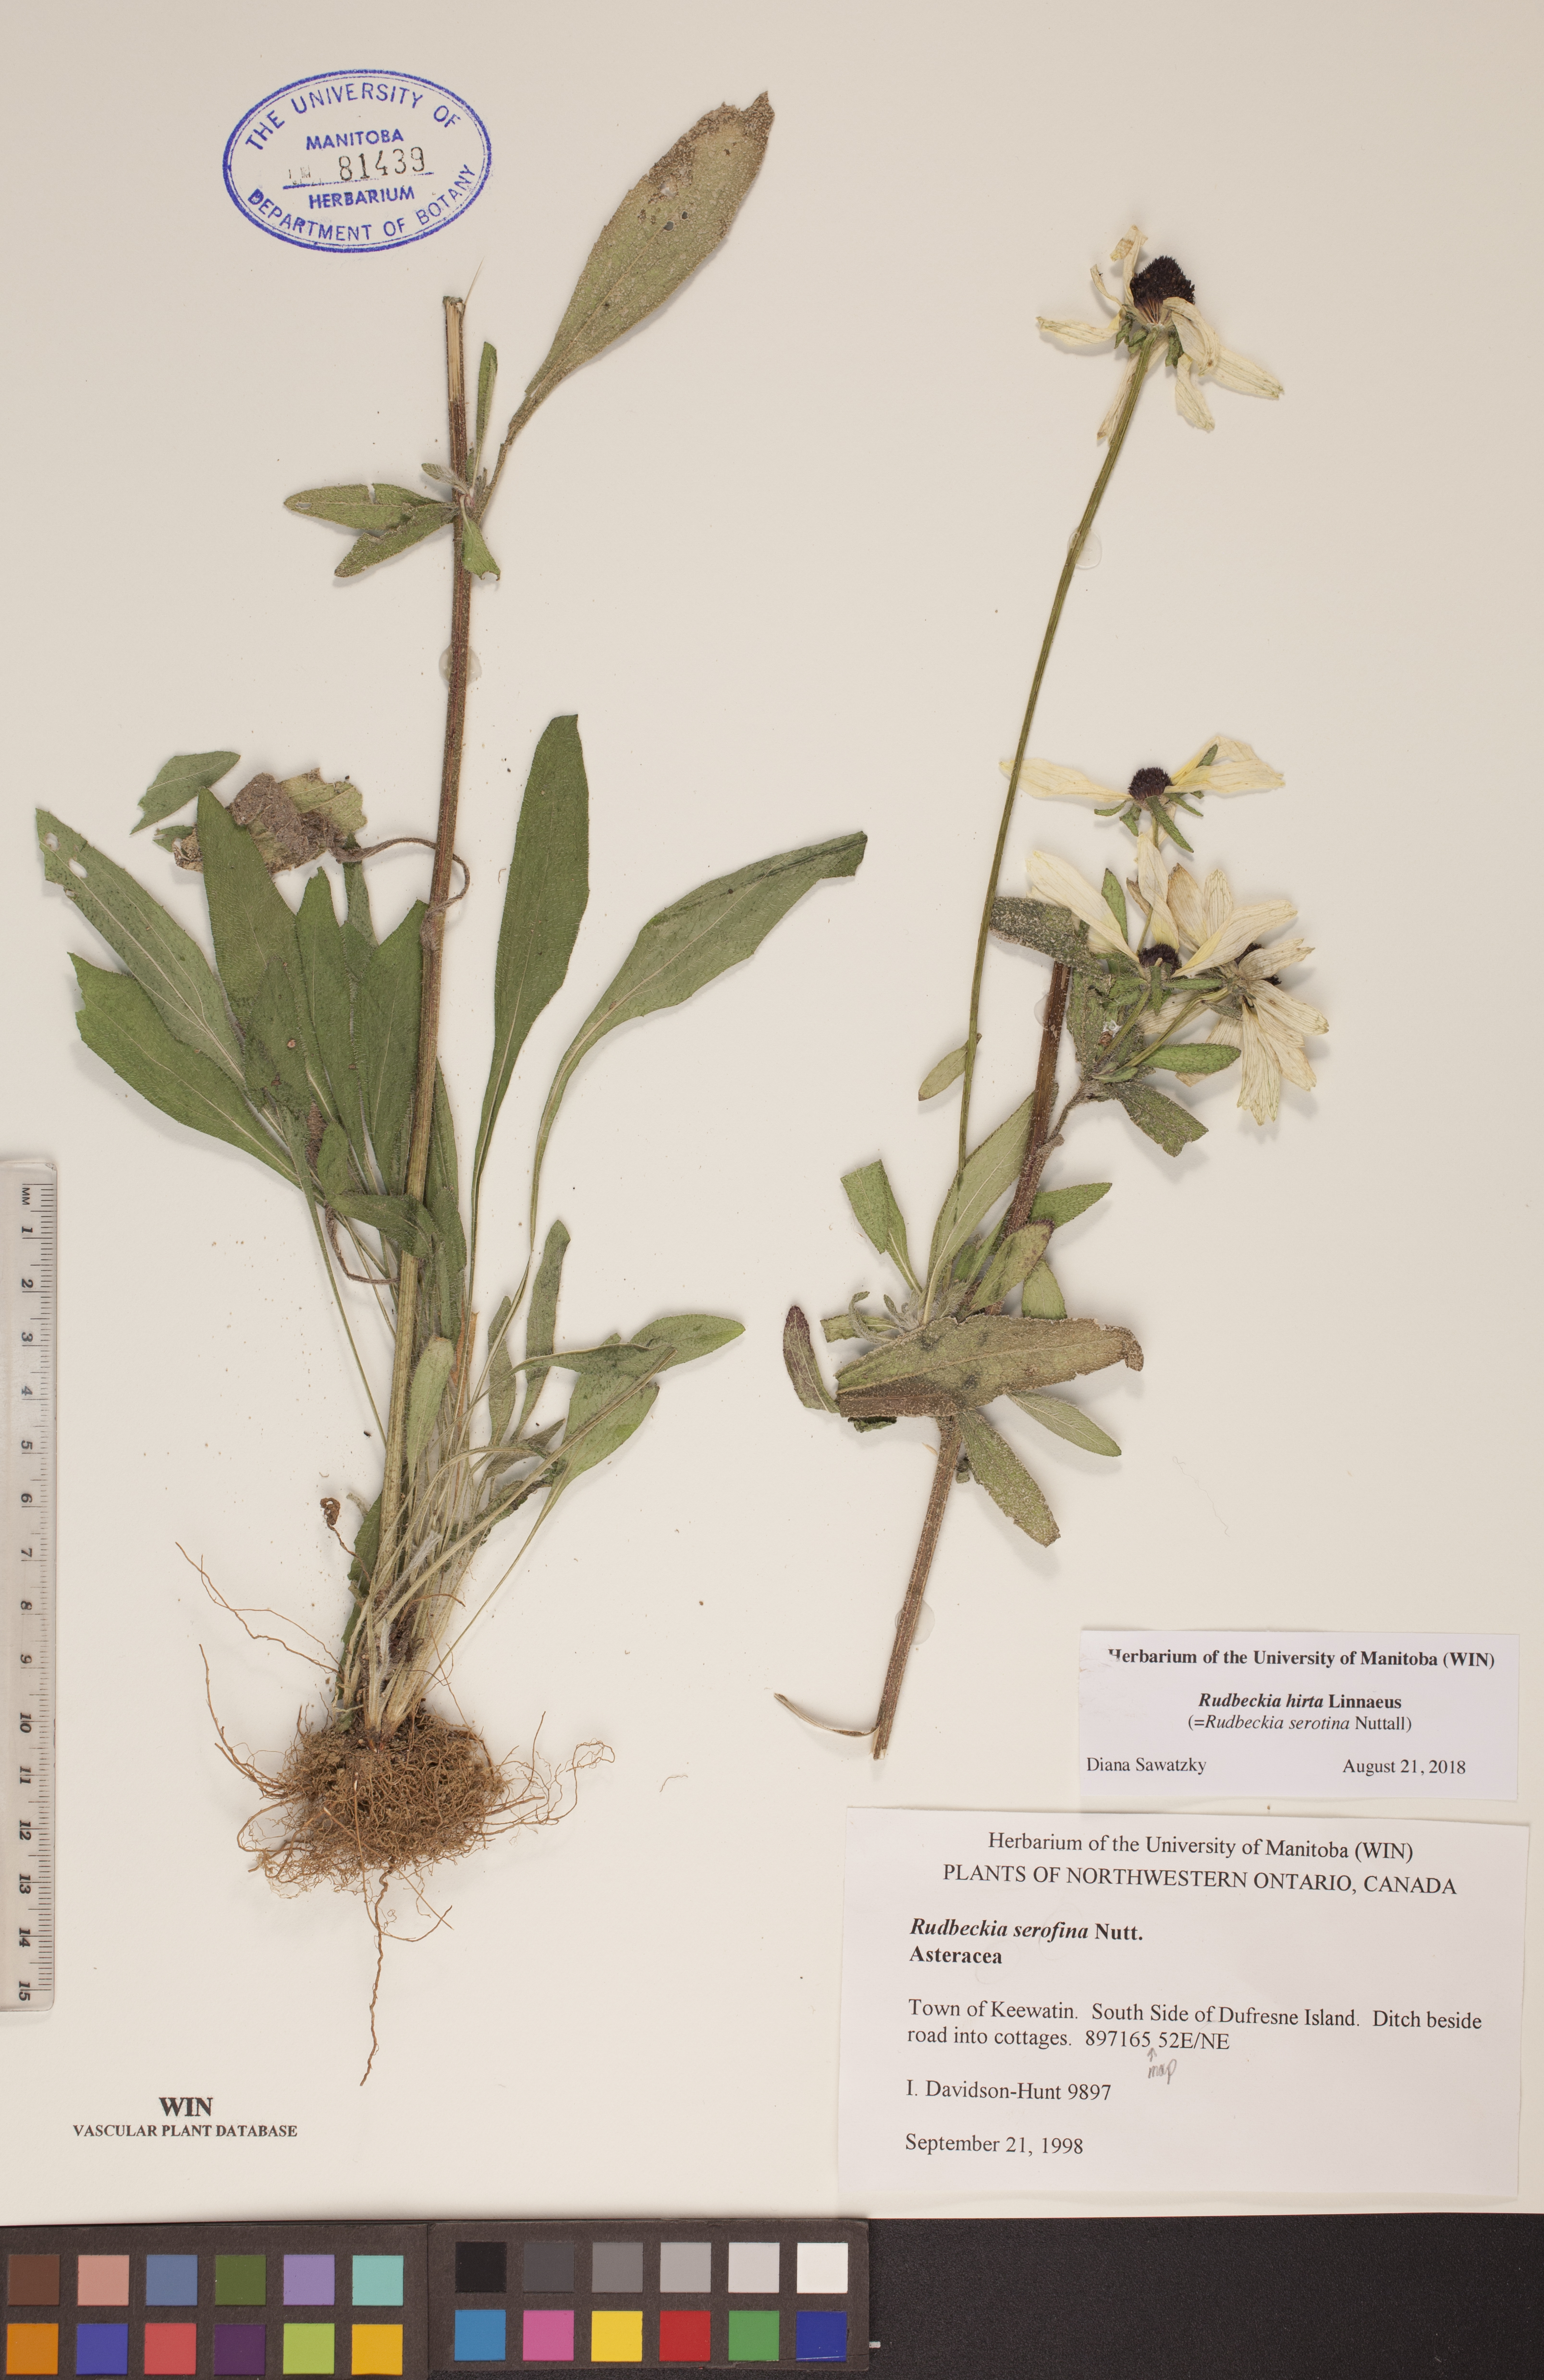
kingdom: Plantae
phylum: Tracheophyta
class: Magnoliopsida
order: Asterales
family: Asteraceae
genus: Rudbeckia
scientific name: Rudbeckia hirta
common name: Black-eyed-susan
